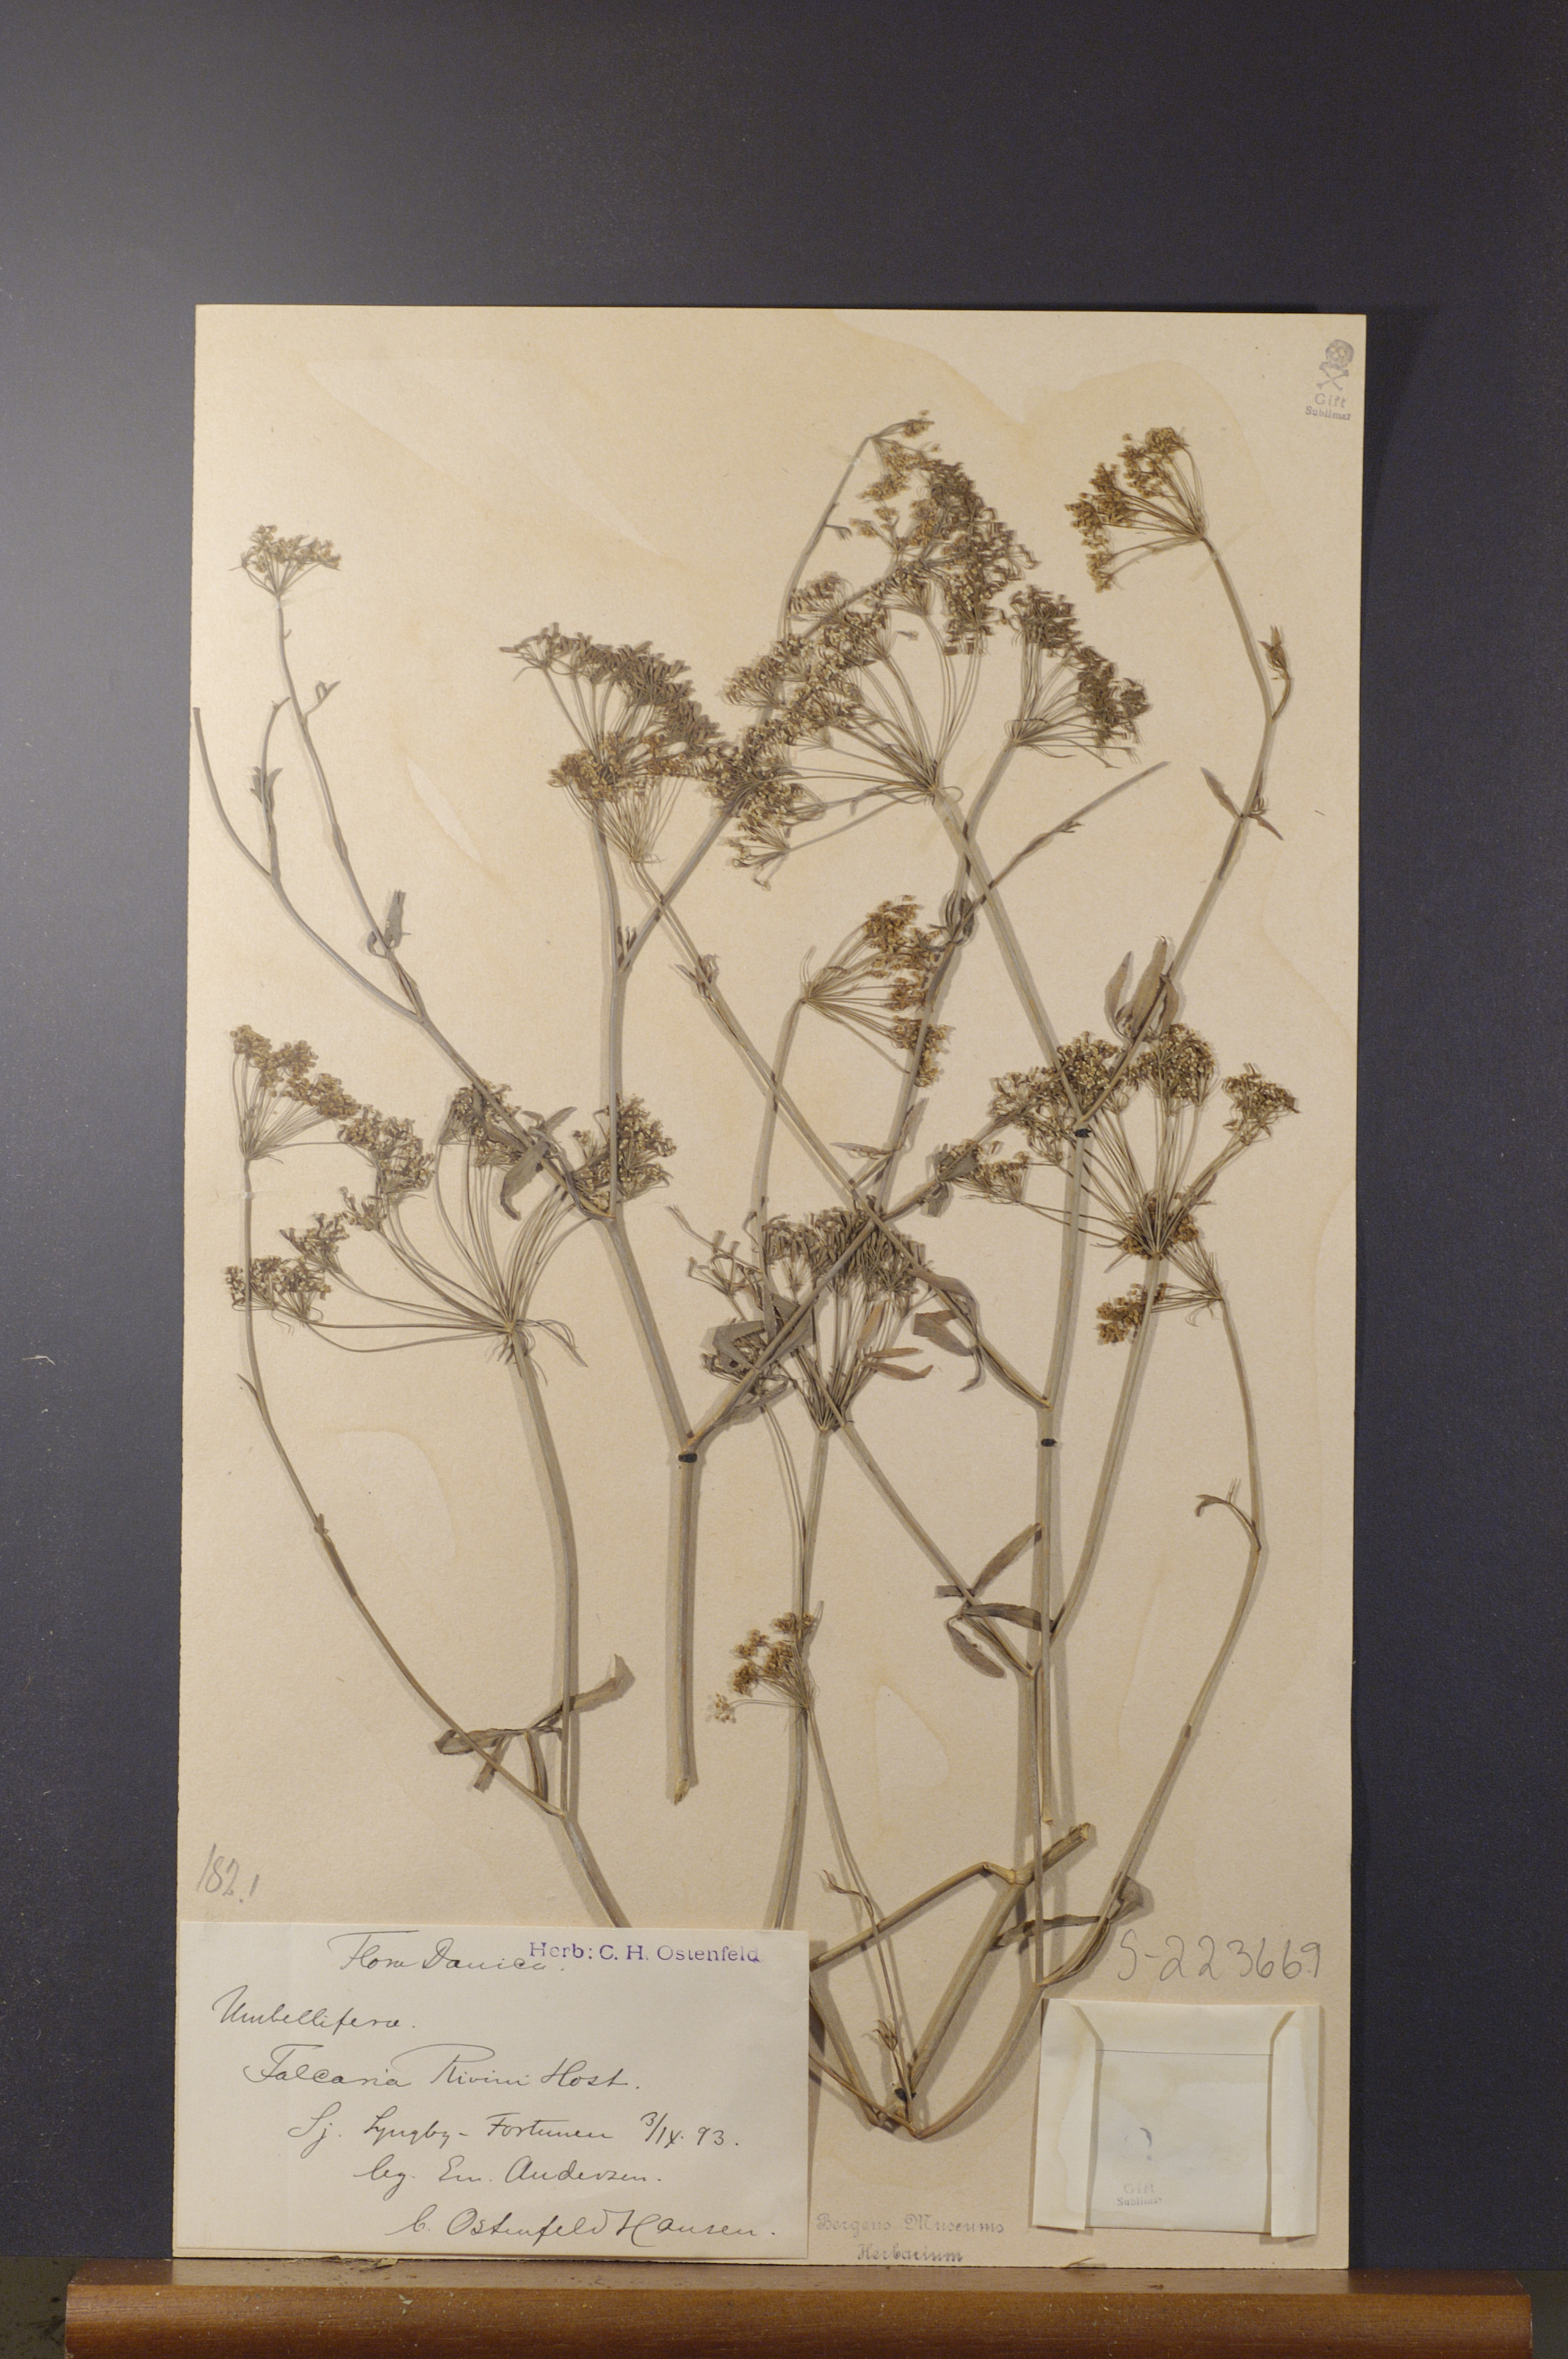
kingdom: Plantae
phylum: Tracheophyta
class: Magnoliopsida
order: Apiales
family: Apiaceae
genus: Falcaria
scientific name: Falcaria vulgaris
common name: Longleaf
